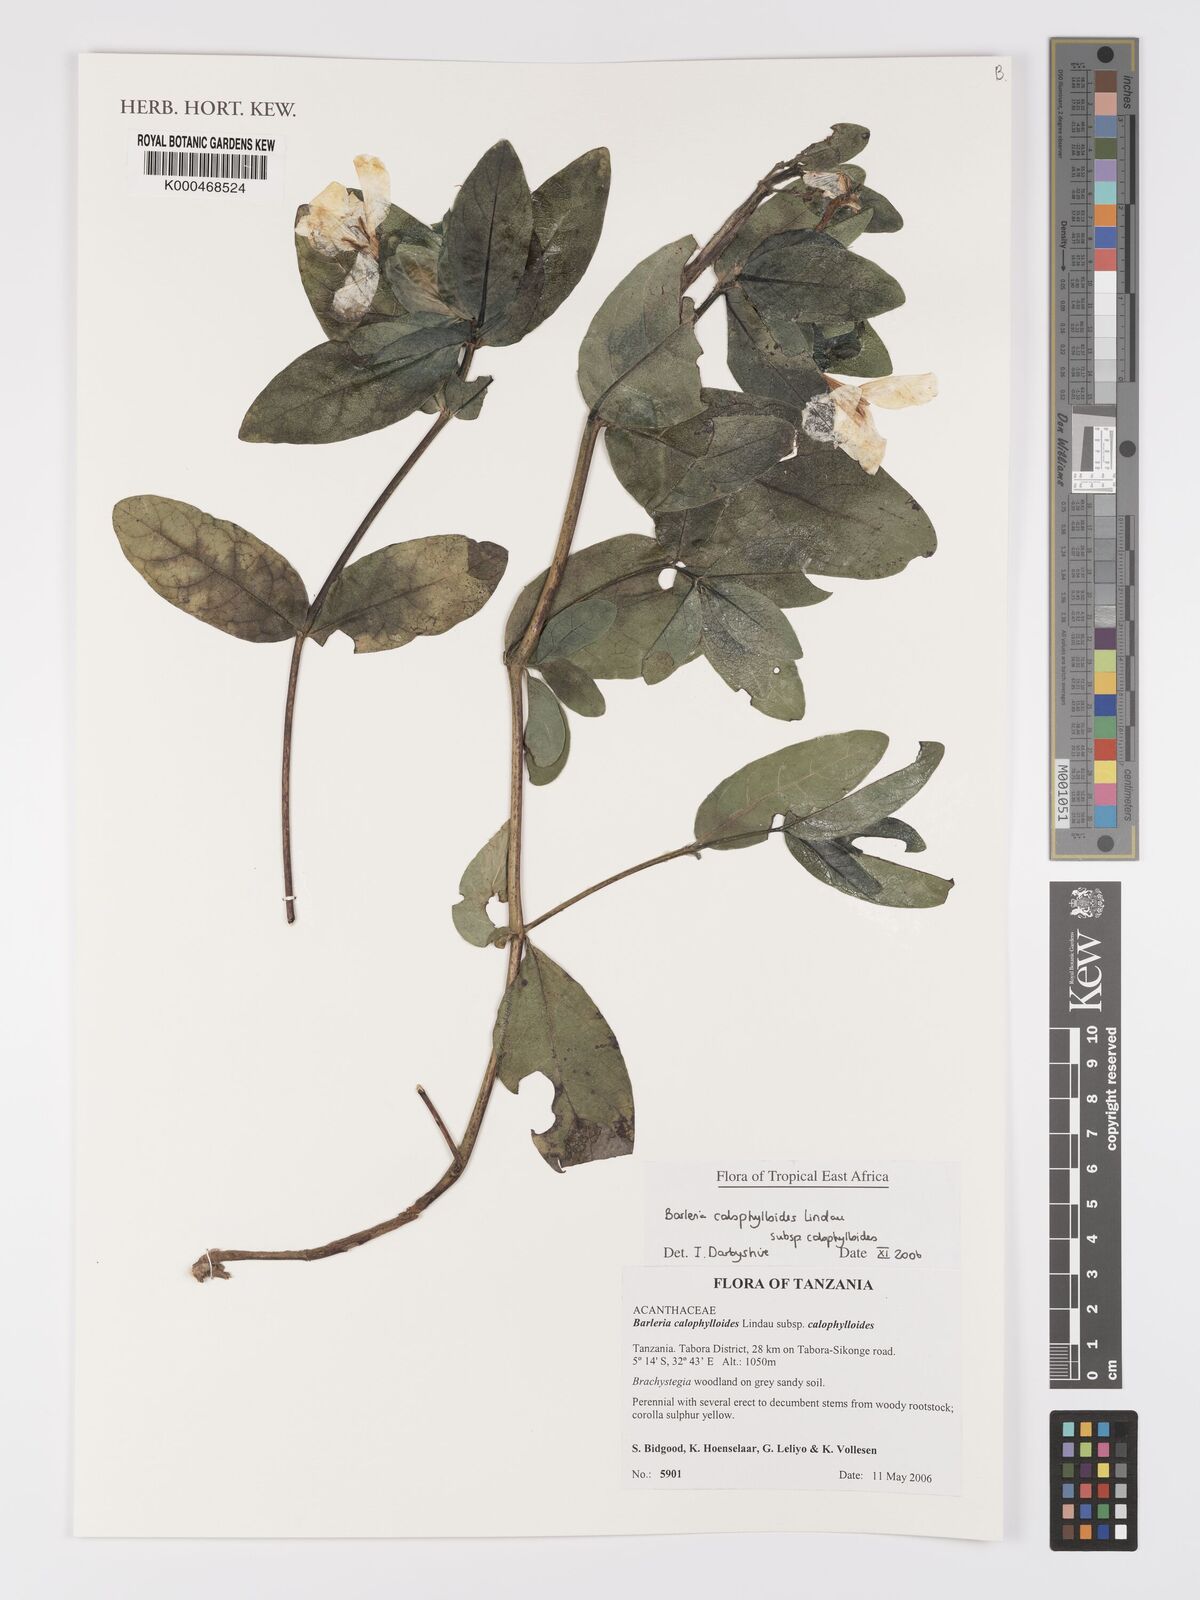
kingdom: Plantae
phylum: Tracheophyta
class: Magnoliopsida
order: Lamiales
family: Acanthaceae
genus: Barleria
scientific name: Barleria calophylloides
